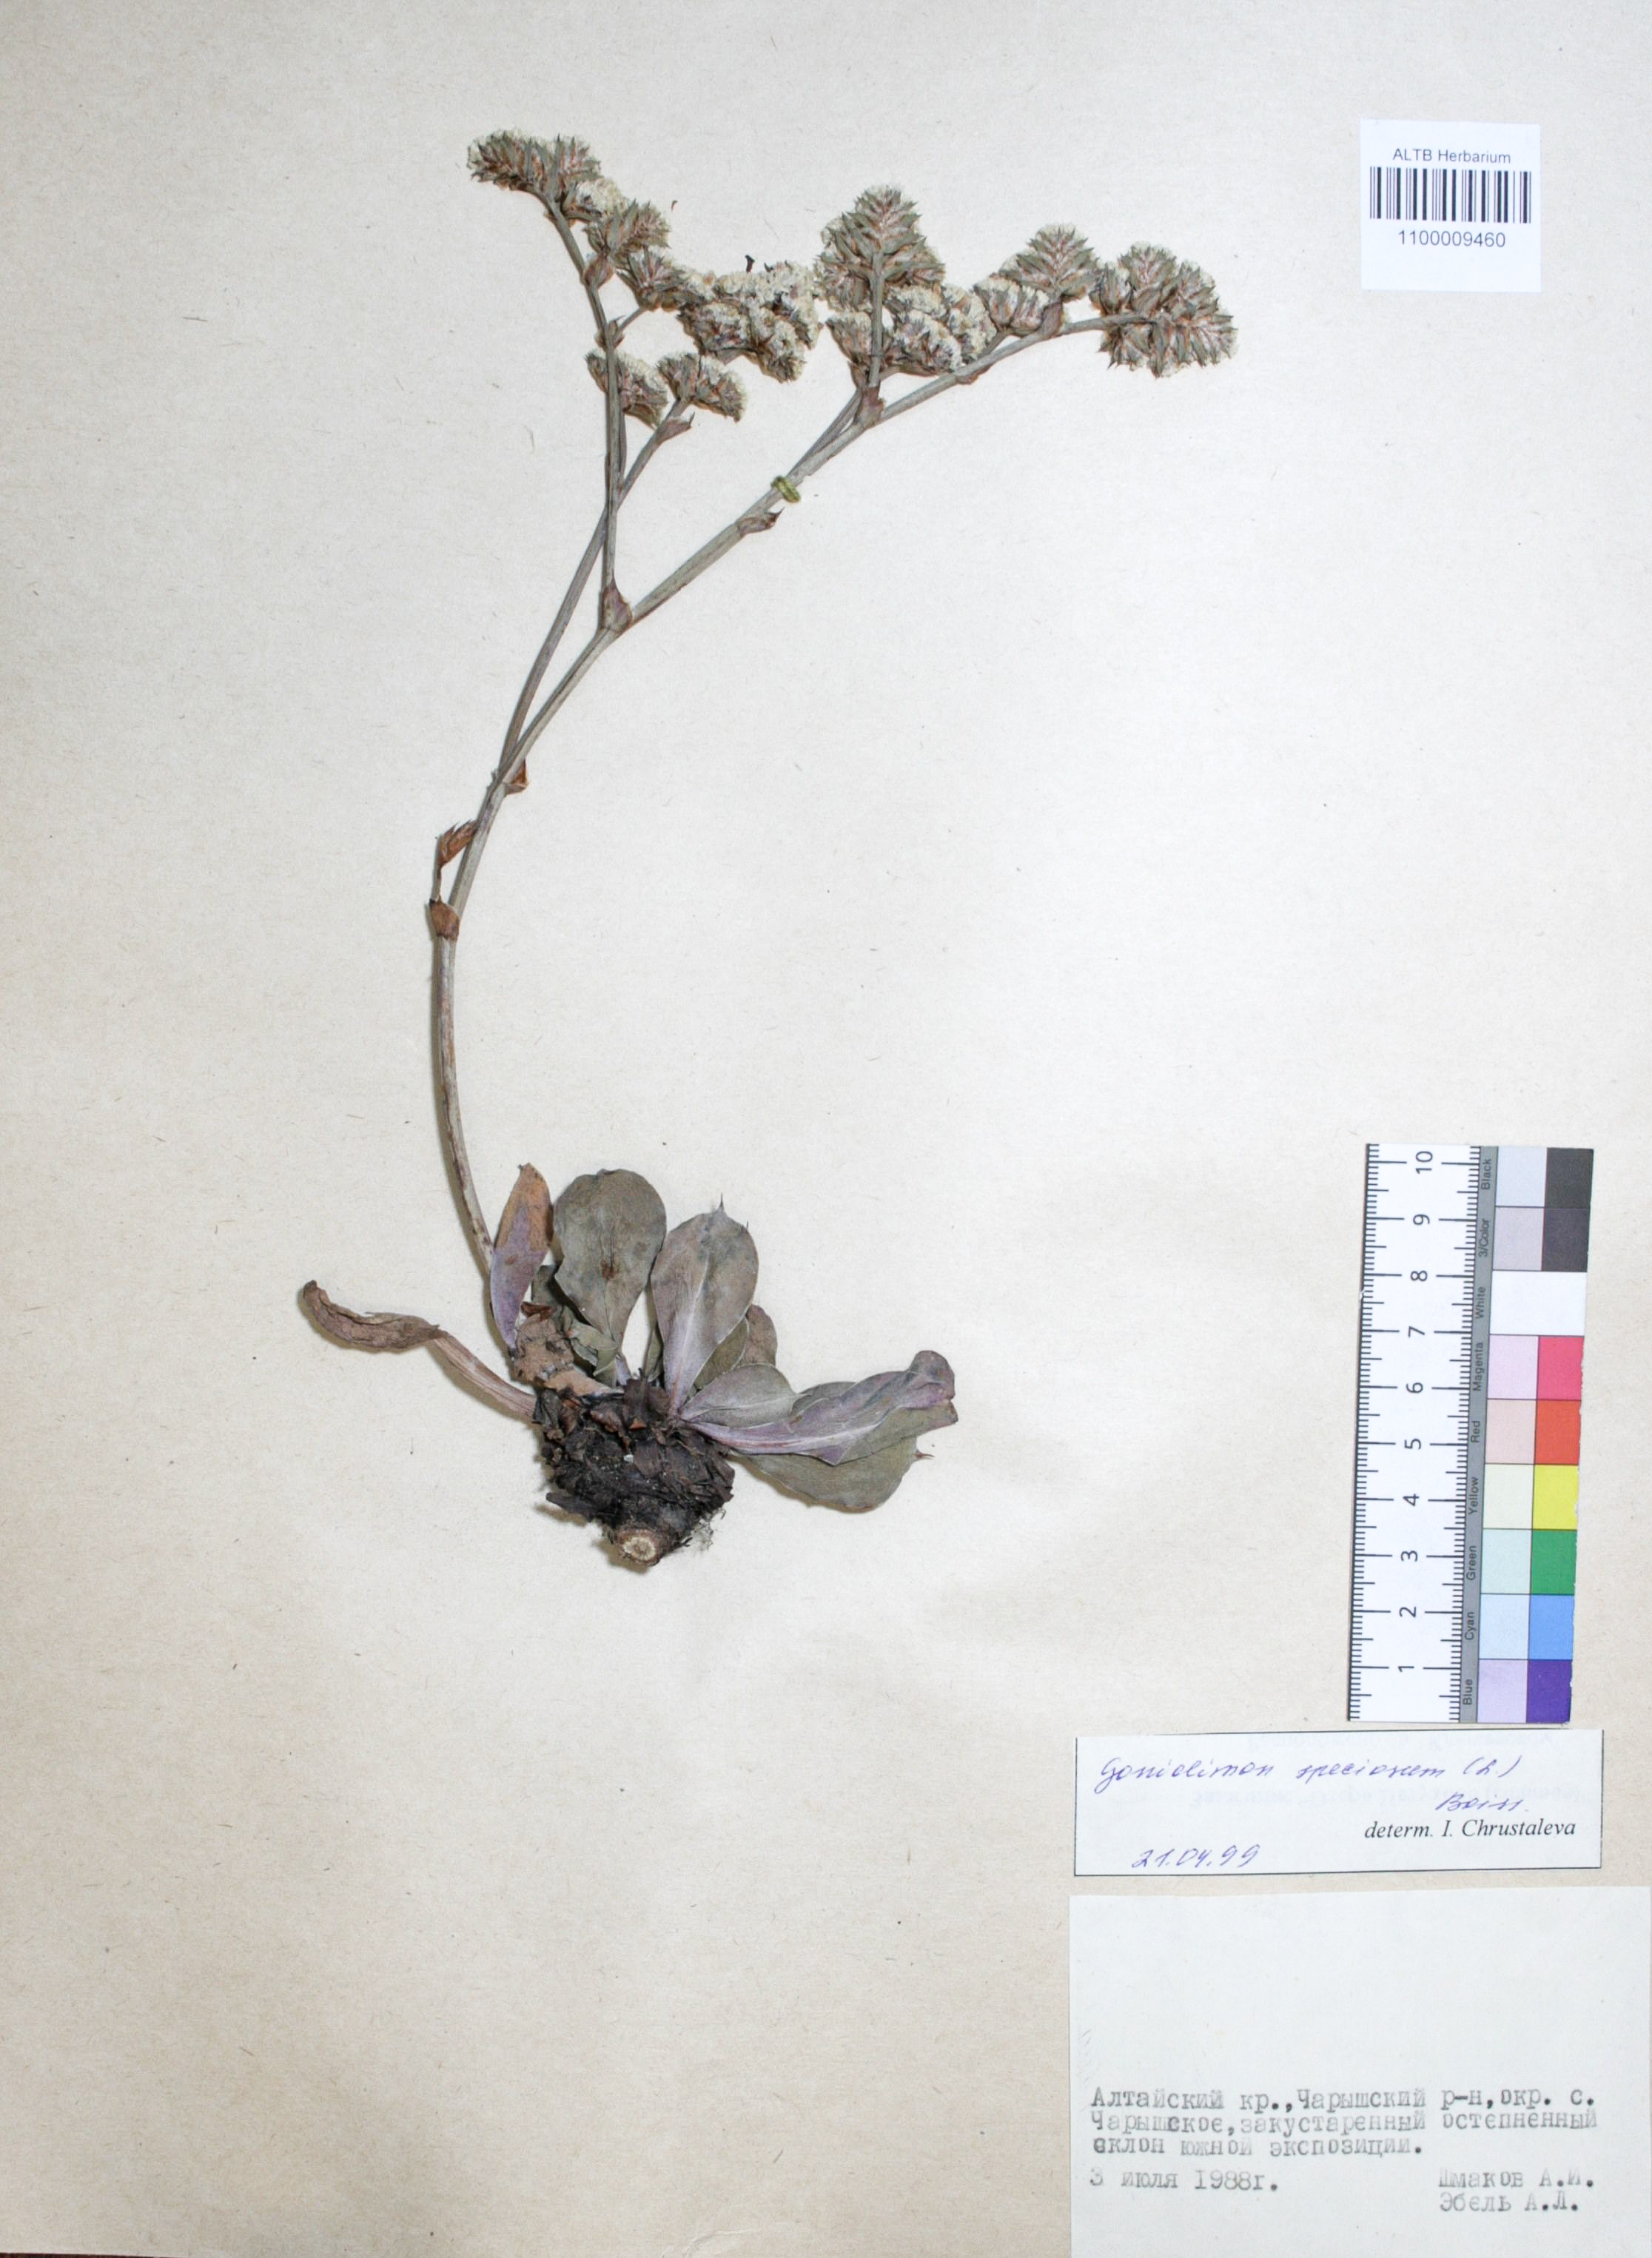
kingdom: Plantae
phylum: Tracheophyta
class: Magnoliopsida
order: Caryophyllales
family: Plumbaginaceae
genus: Goniolimon
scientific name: Goniolimon speciosum
